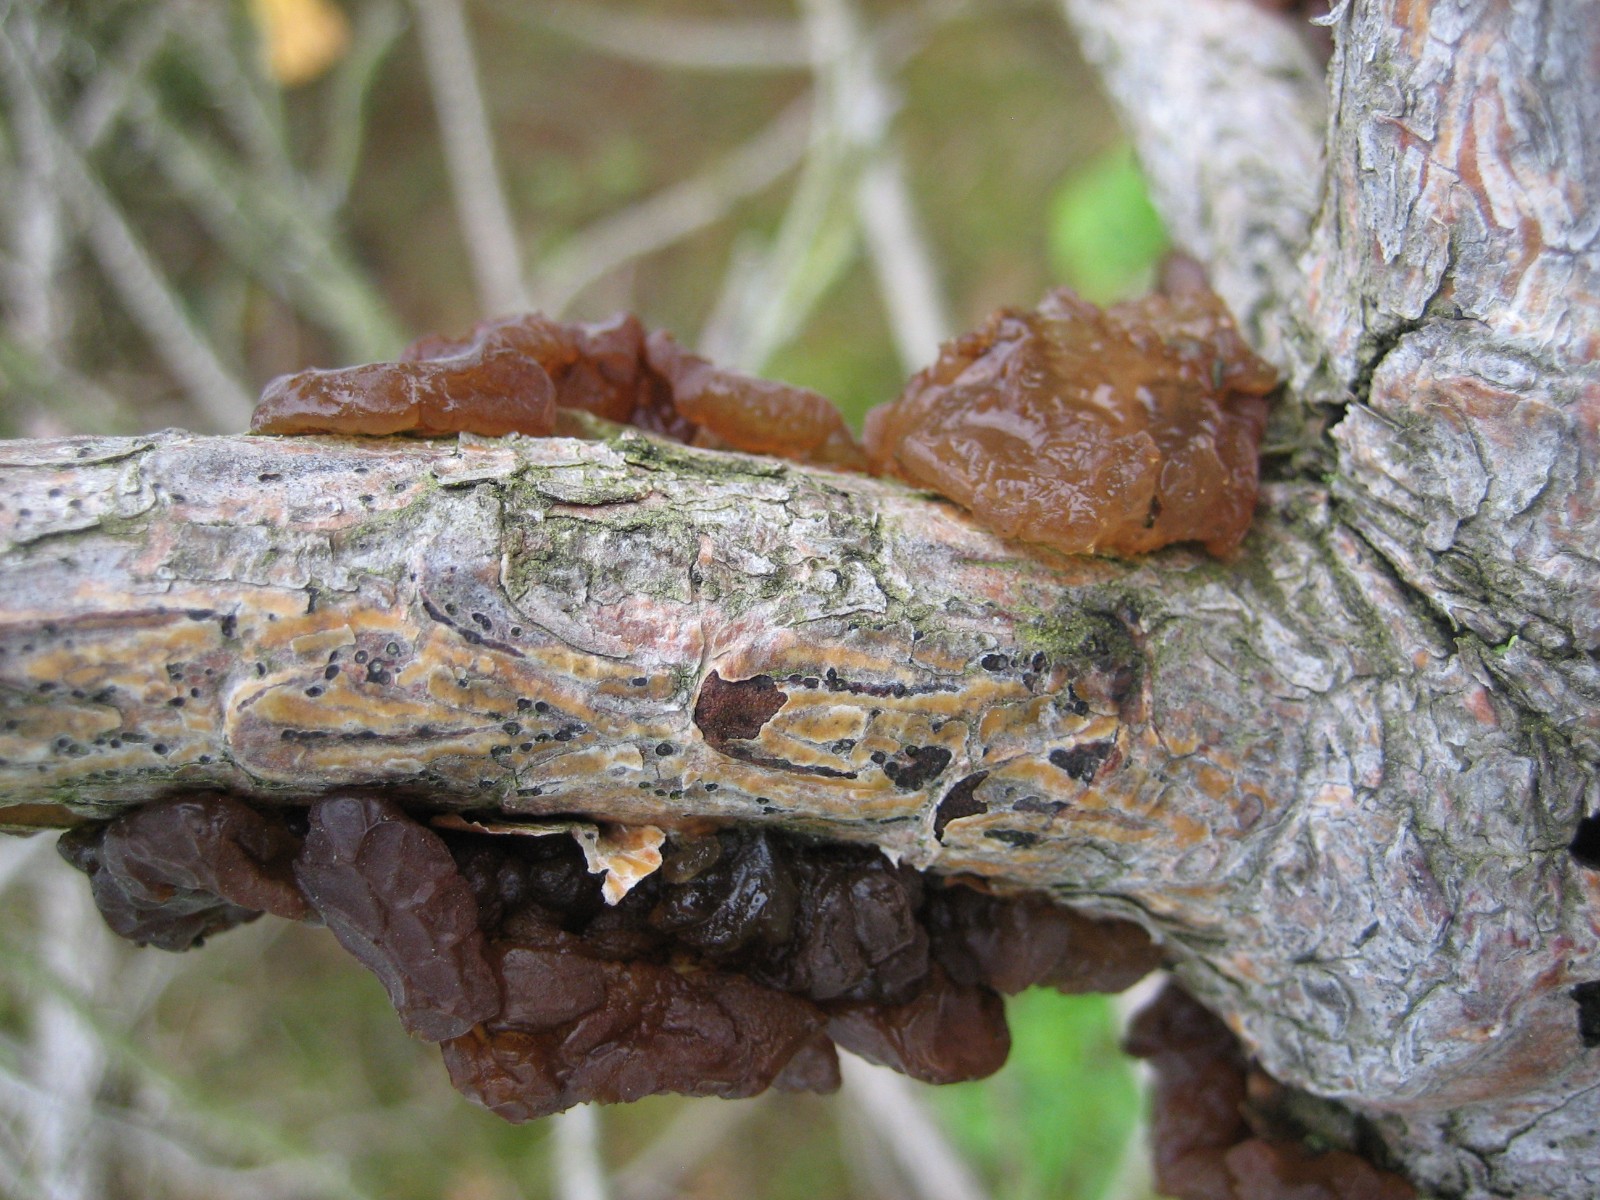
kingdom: Fungi
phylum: Basidiomycota
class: Agaricomycetes
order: Auriculariales
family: Auriculariaceae
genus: Exidia
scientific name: Exidia saccharina
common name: kandis-bævretop
